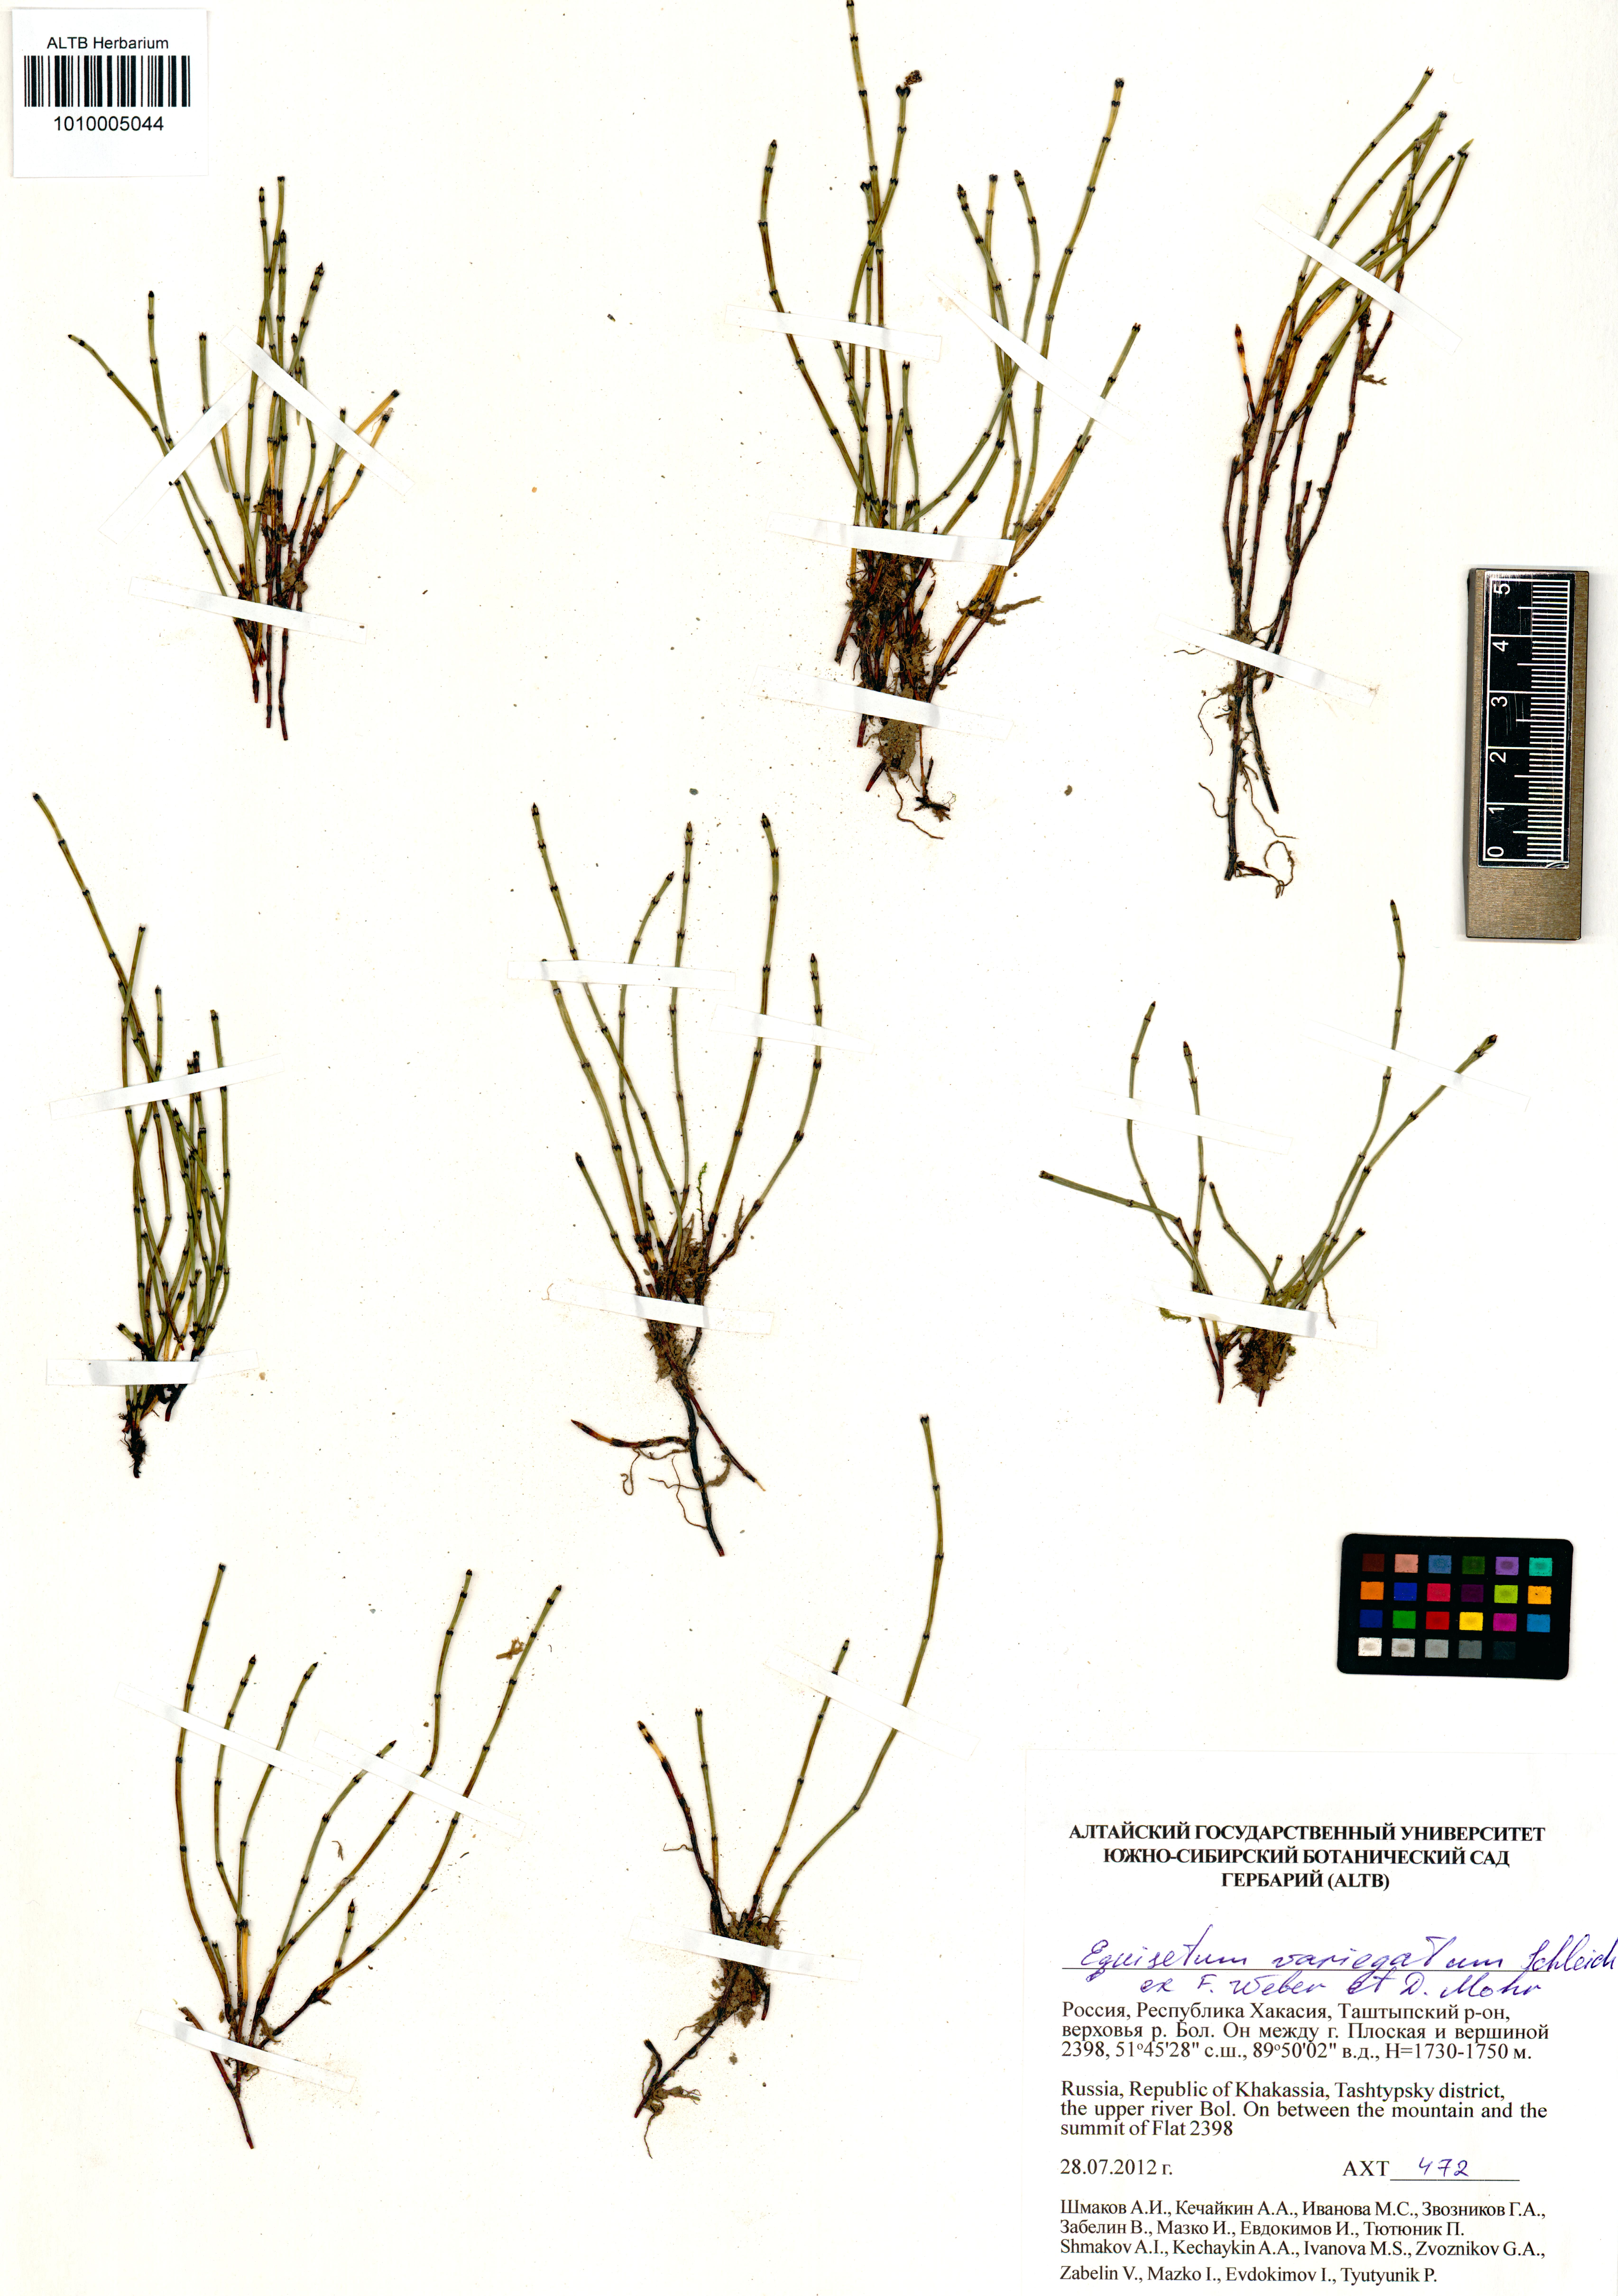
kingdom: Plantae
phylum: Tracheophyta
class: Polypodiopsida
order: Equisetales
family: Equisetaceae
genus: Equisetum
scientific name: Equisetum variegatum
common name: Variegated horsetail
